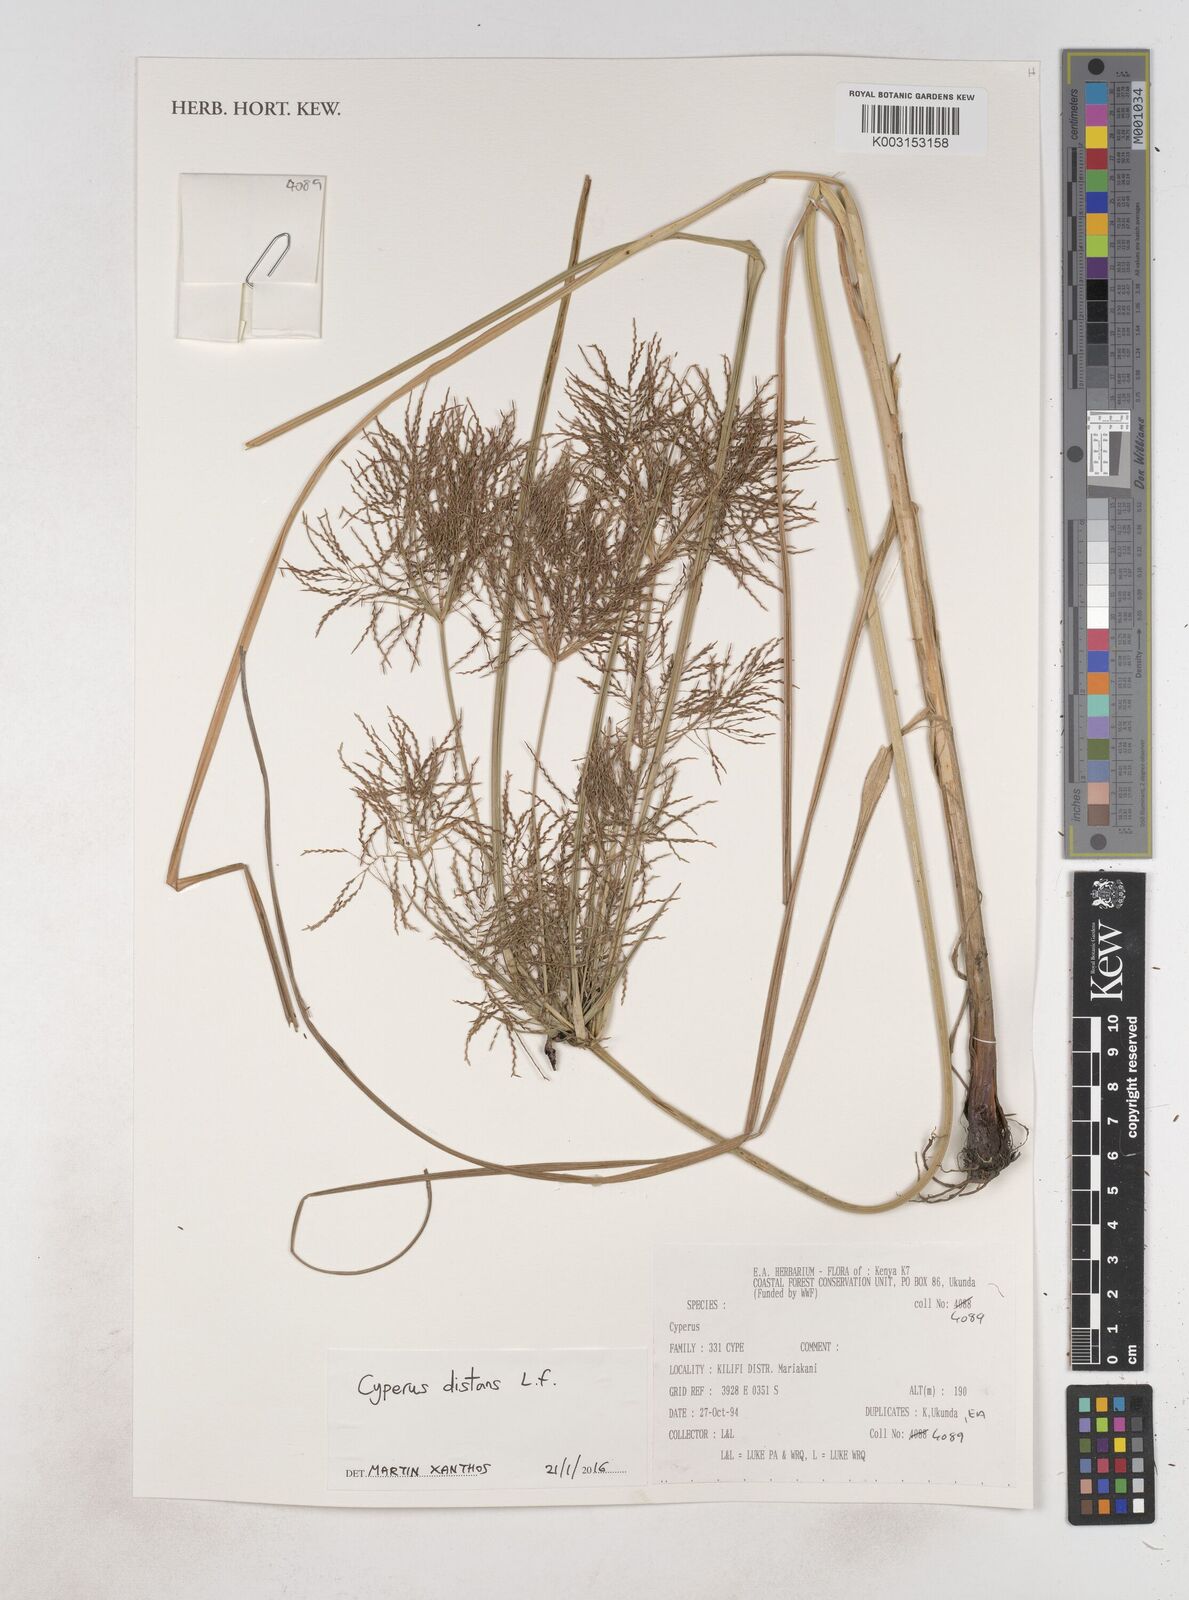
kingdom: Plantae
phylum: Tracheophyta
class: Liliopsida
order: Poales
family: Cyperaceae
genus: Cyperus
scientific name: Cyperus distans
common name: Slender cyperus
